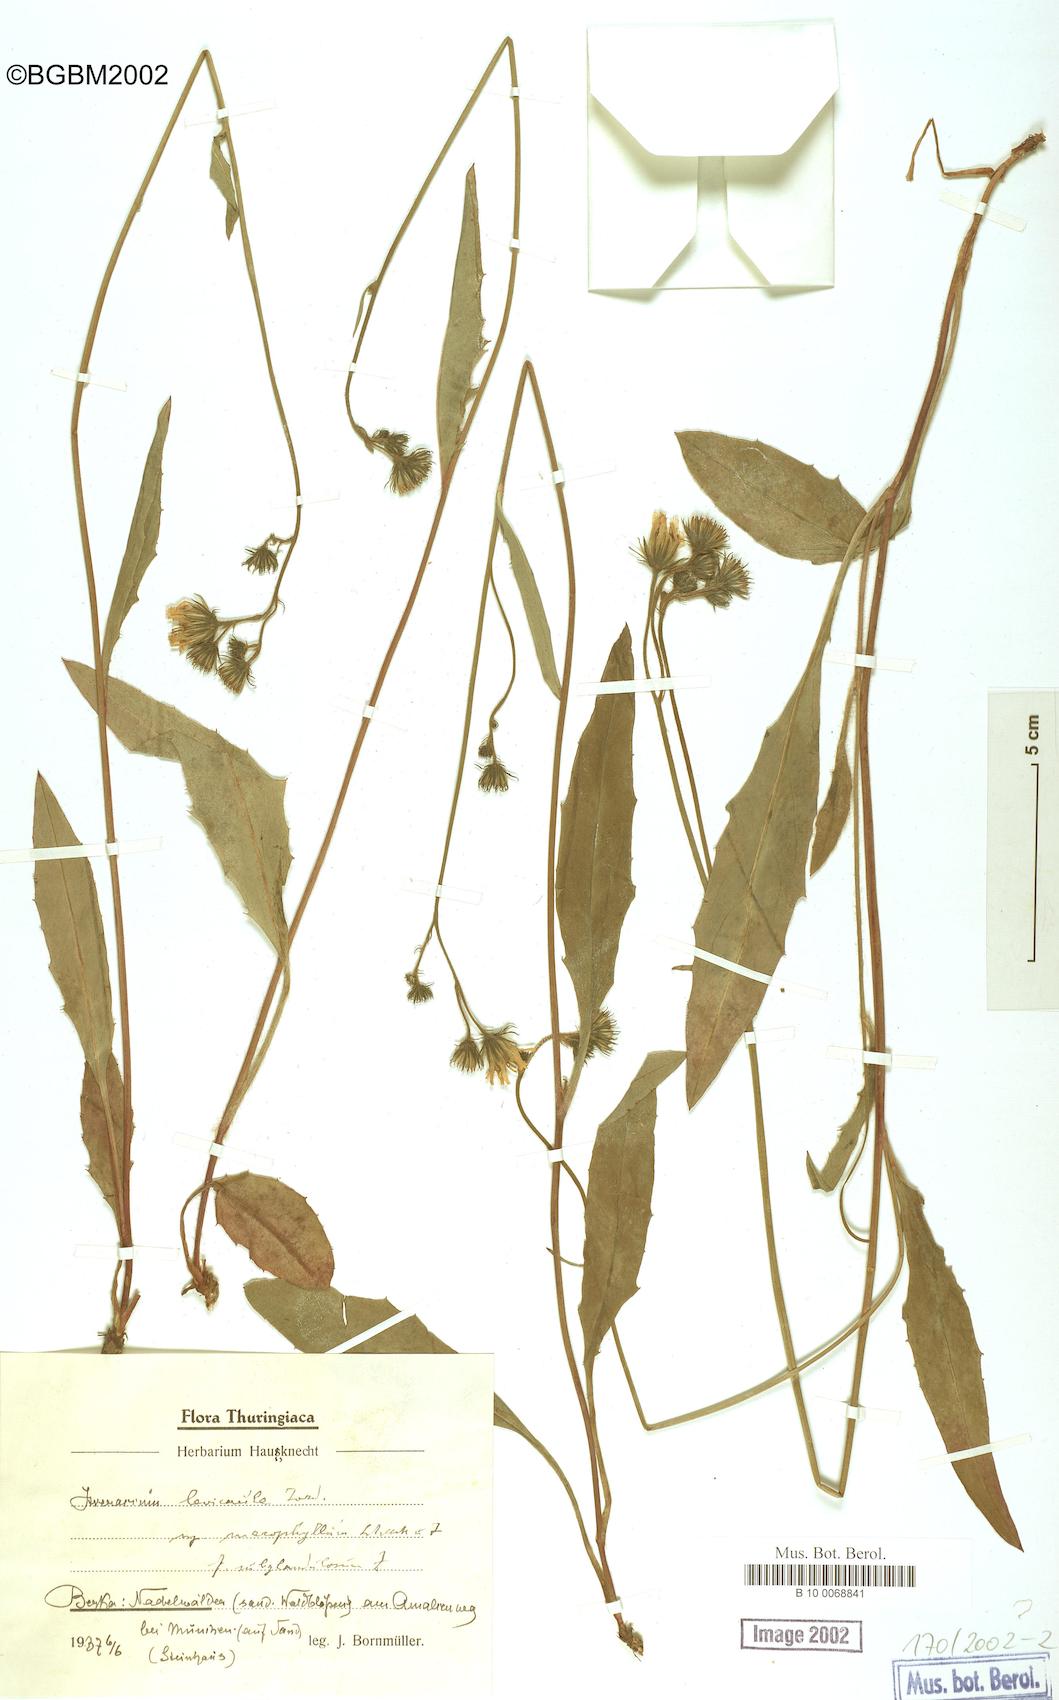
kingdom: Plantae
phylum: Tracheophyta
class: Magnoliopsida
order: Asterales
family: Asteraceae
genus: Hieracium
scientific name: Hieracium
